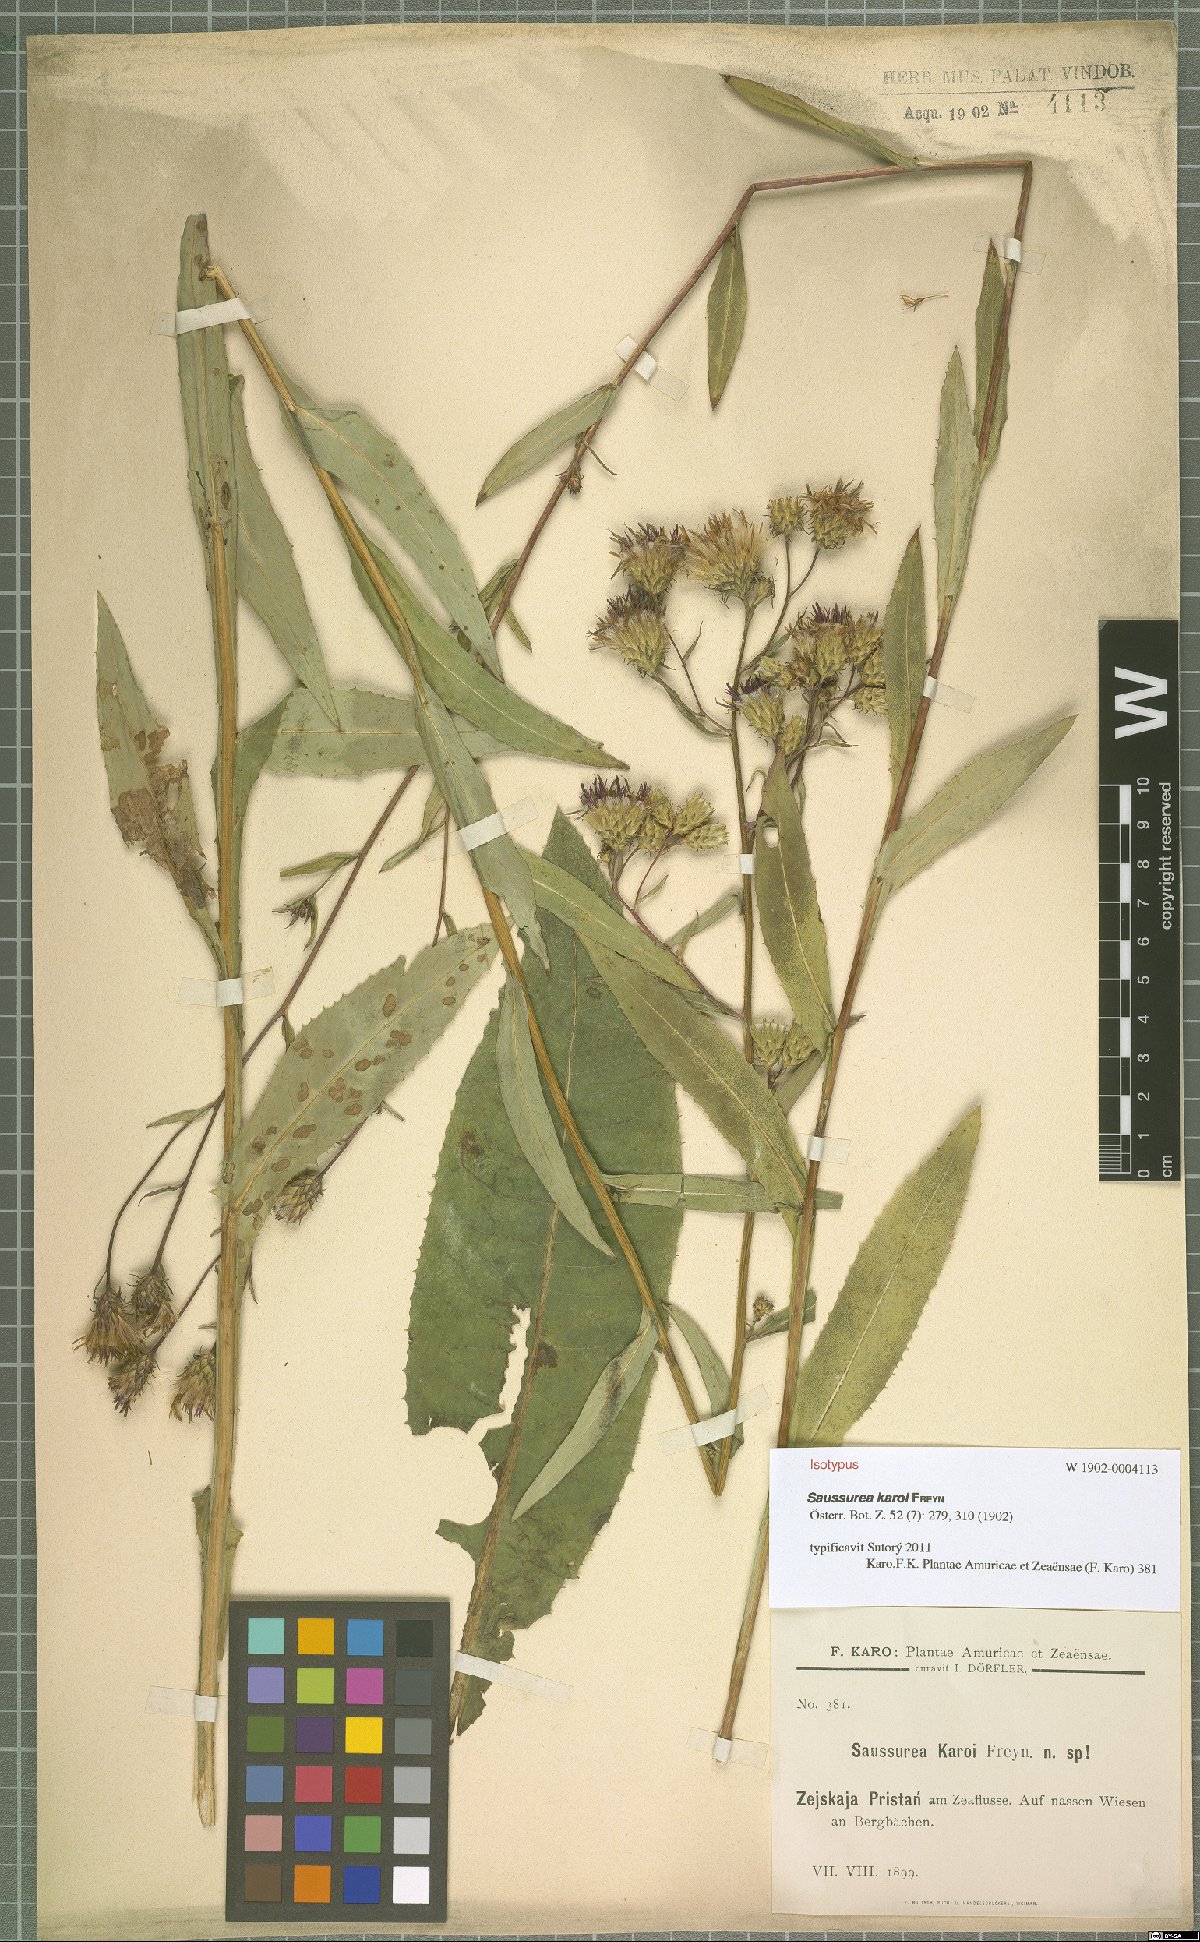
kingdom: Plantae
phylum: Tracheophyta
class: Magnoliopsida
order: Asterales
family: Asteraceae
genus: Saussurea
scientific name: Saussurea umbrosa
